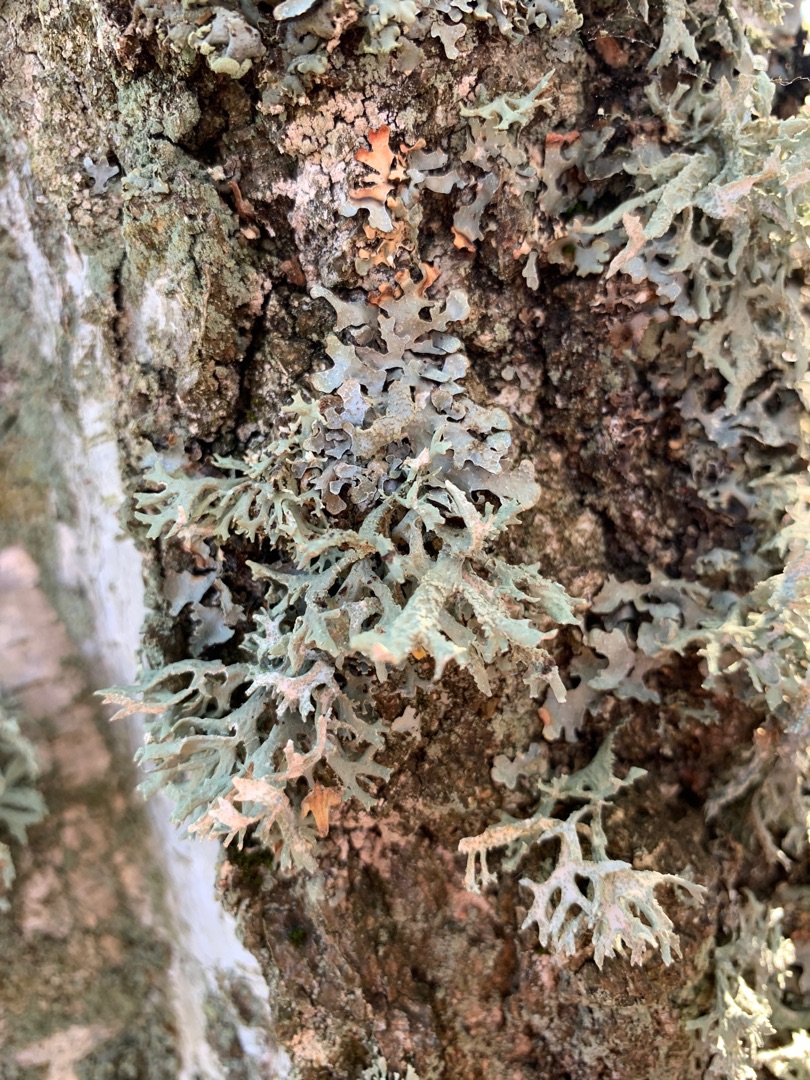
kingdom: Fungi
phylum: Ascomycota
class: Lecanoromycetes
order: Lecanorales
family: Parmeliaceae
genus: Evernia
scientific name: Evernia prunastri
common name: Almindelig slåenlav
